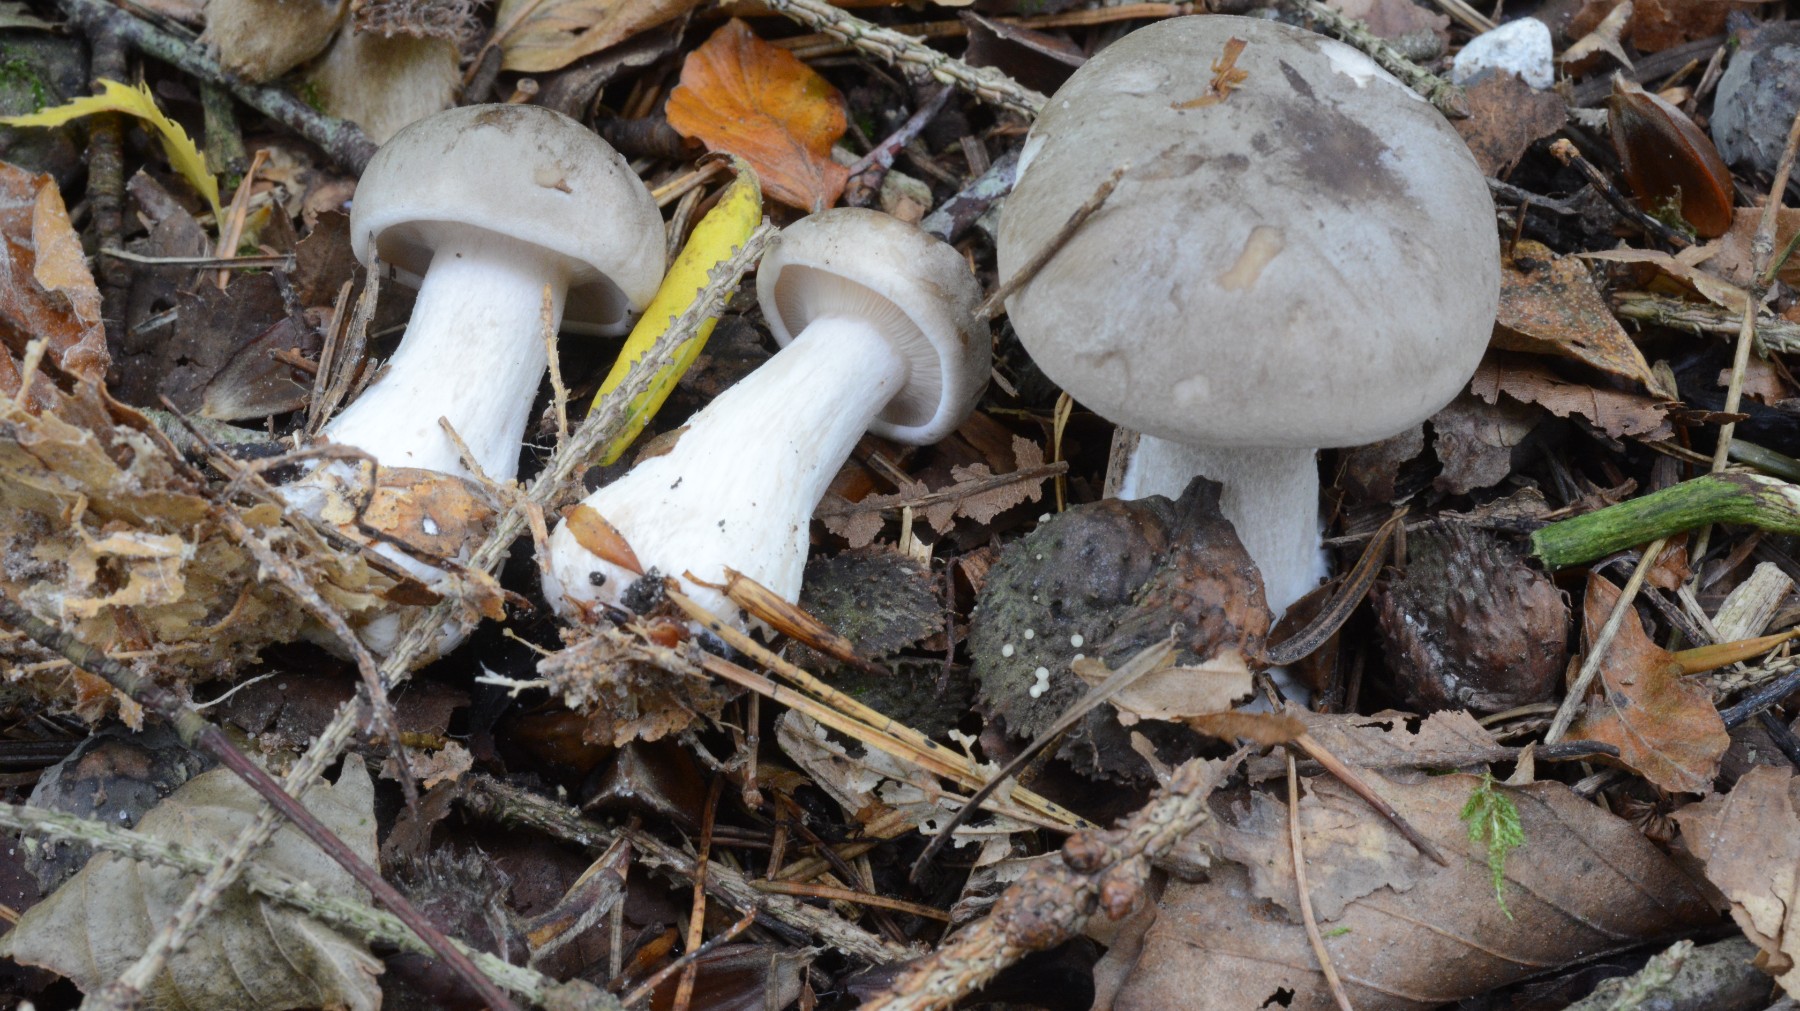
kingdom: Fungi
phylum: Basidiomycota
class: Agaricomycetes
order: Agaricales
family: Tricholomataceae
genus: Clitocybe
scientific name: Clitocybe nebularis
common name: tåge-tragthat
